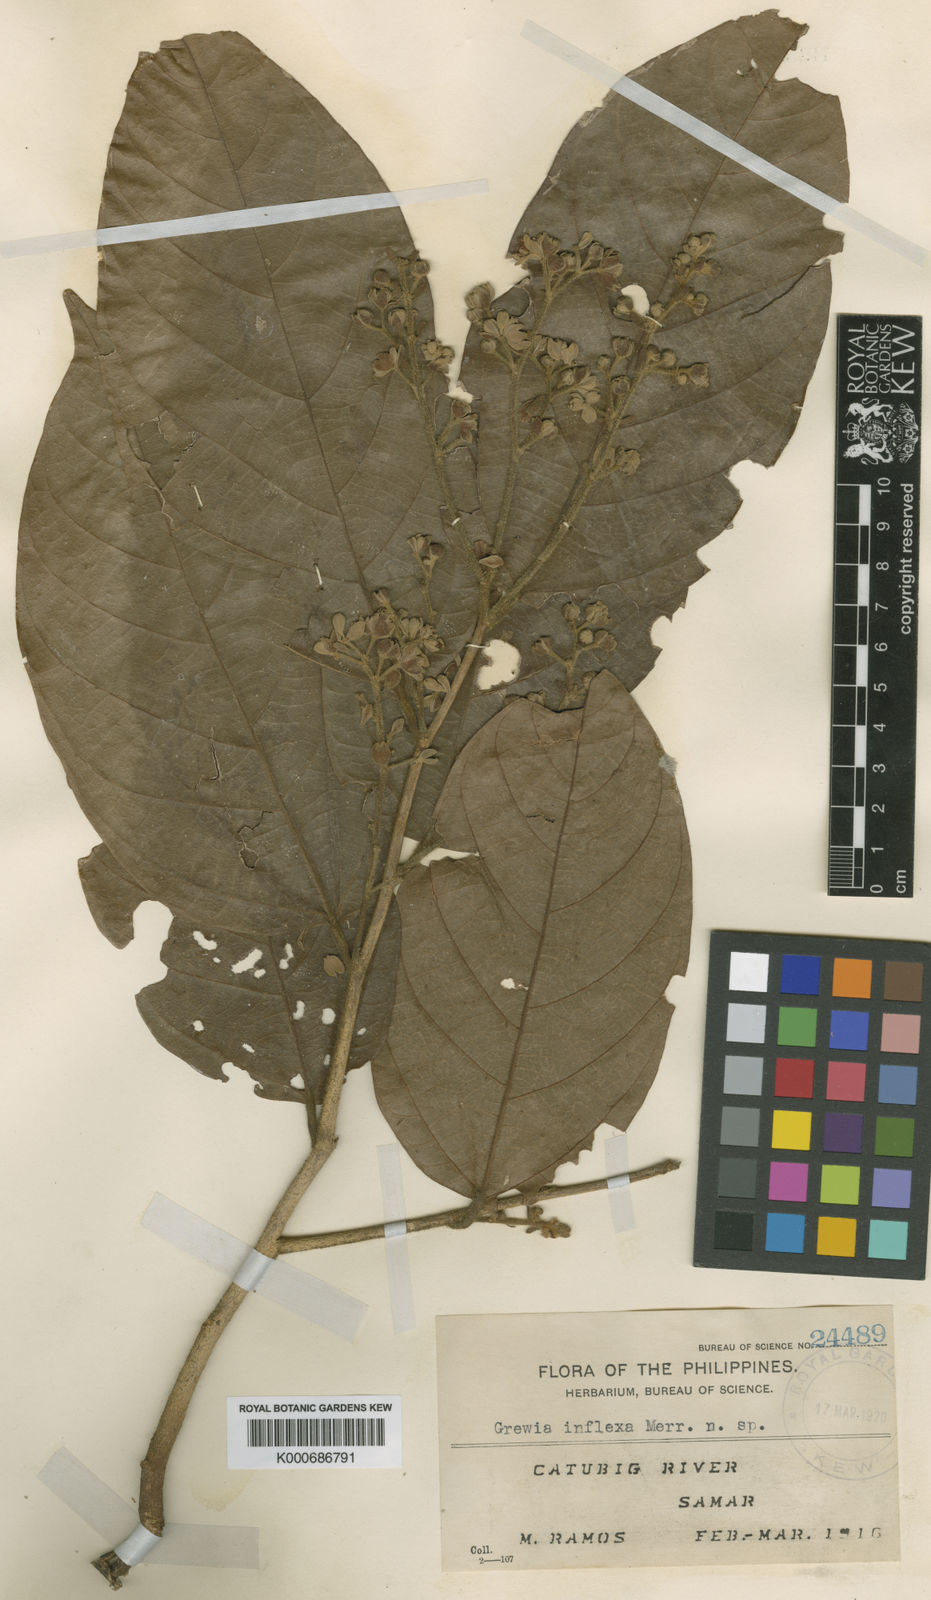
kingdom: Plantae
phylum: Tracheophyta
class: Magnoliopsida
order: Malvales
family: Malvaceae
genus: Microcos
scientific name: Microcos inflexa
